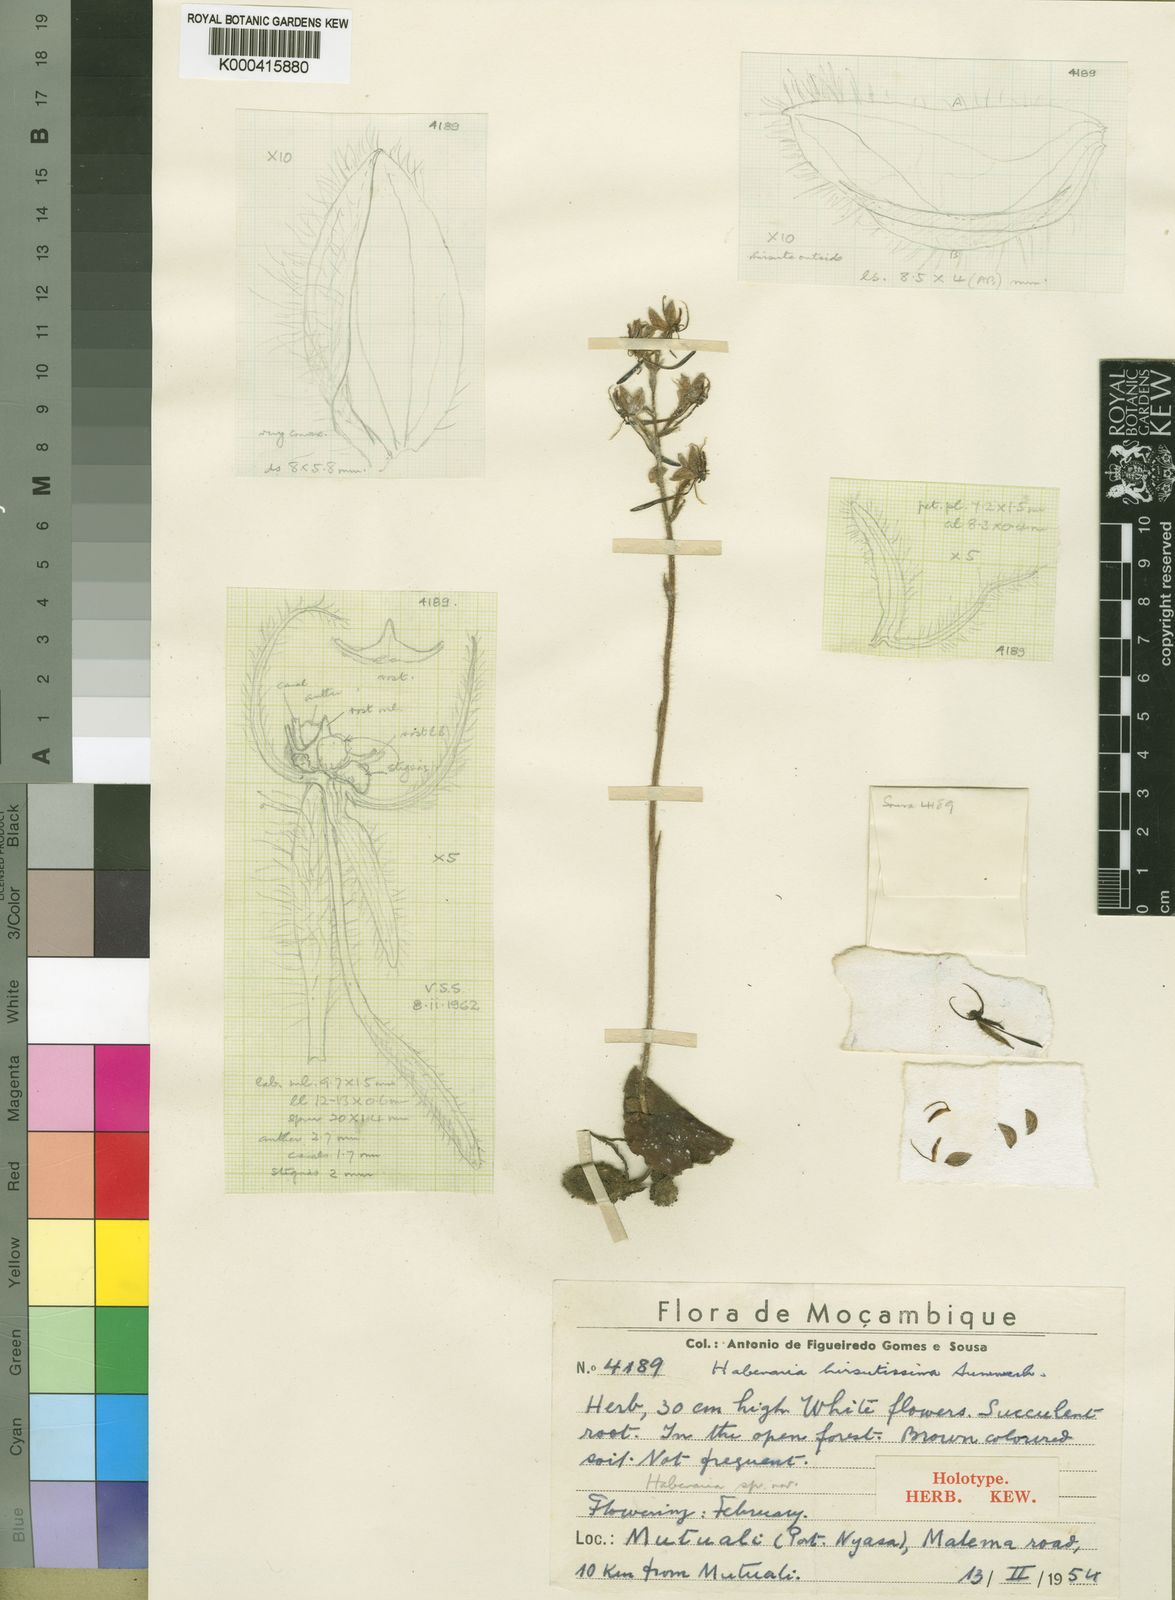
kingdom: Plantae
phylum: Tracheophyta
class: Liliopsida
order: Asparagales
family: Orchidaceae
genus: Habenaria
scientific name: Habenaria hirsutissima
